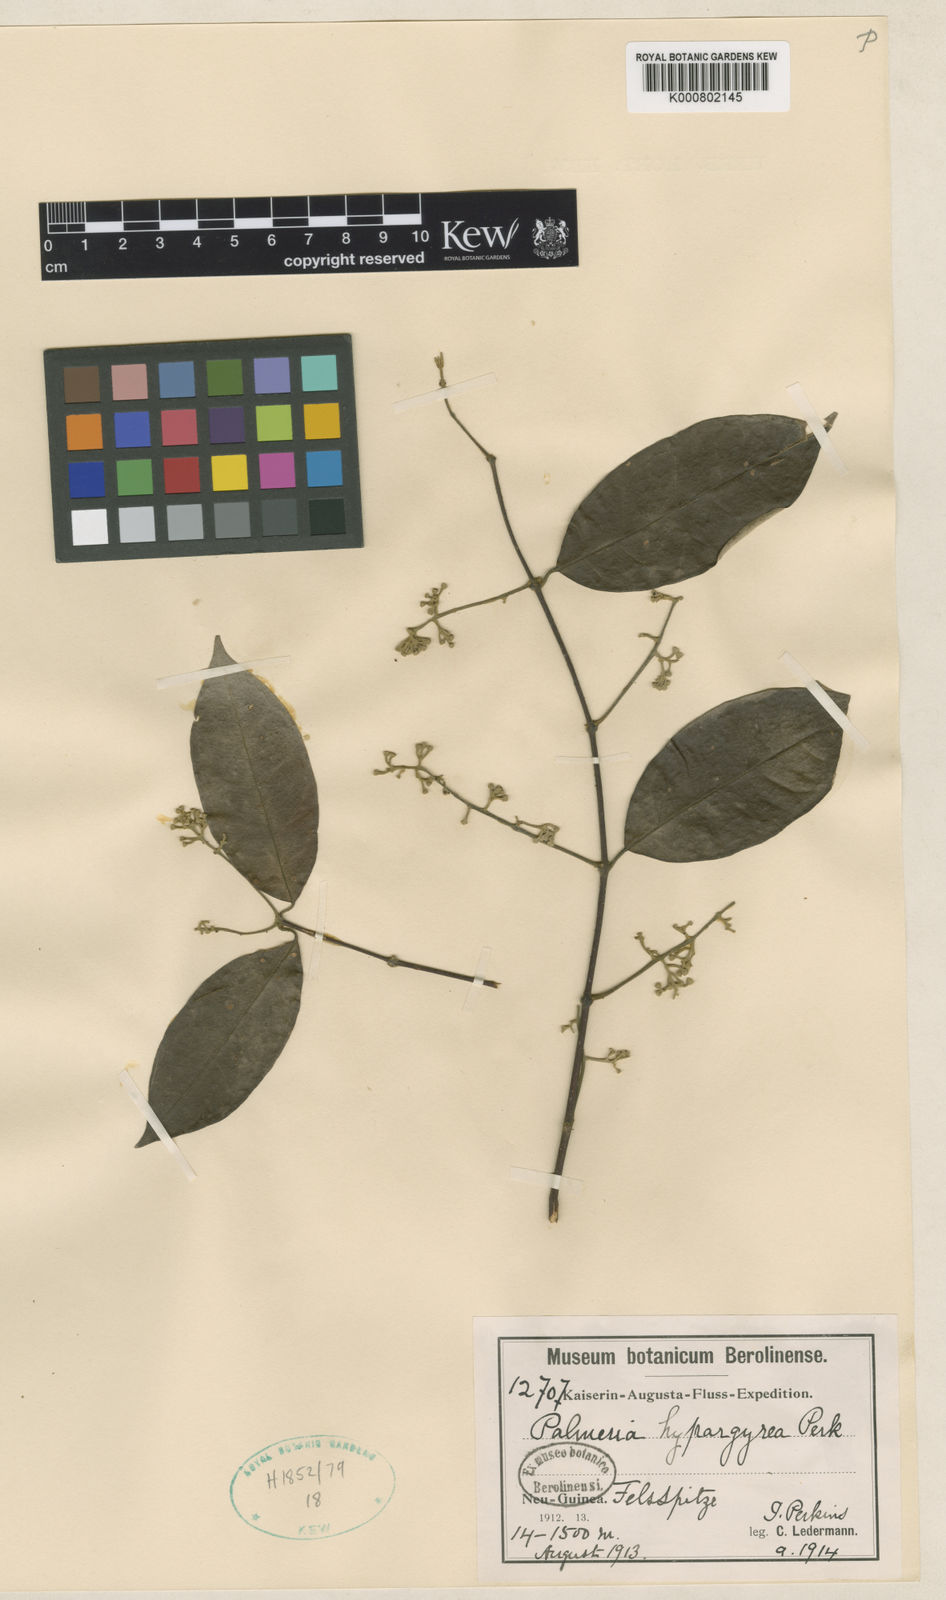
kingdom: Plantae
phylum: Tracheophyta
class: Magnoliopsida
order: Laurales
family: Monimiaceae
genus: Palmeria
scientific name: Palmeria hypargyrea
